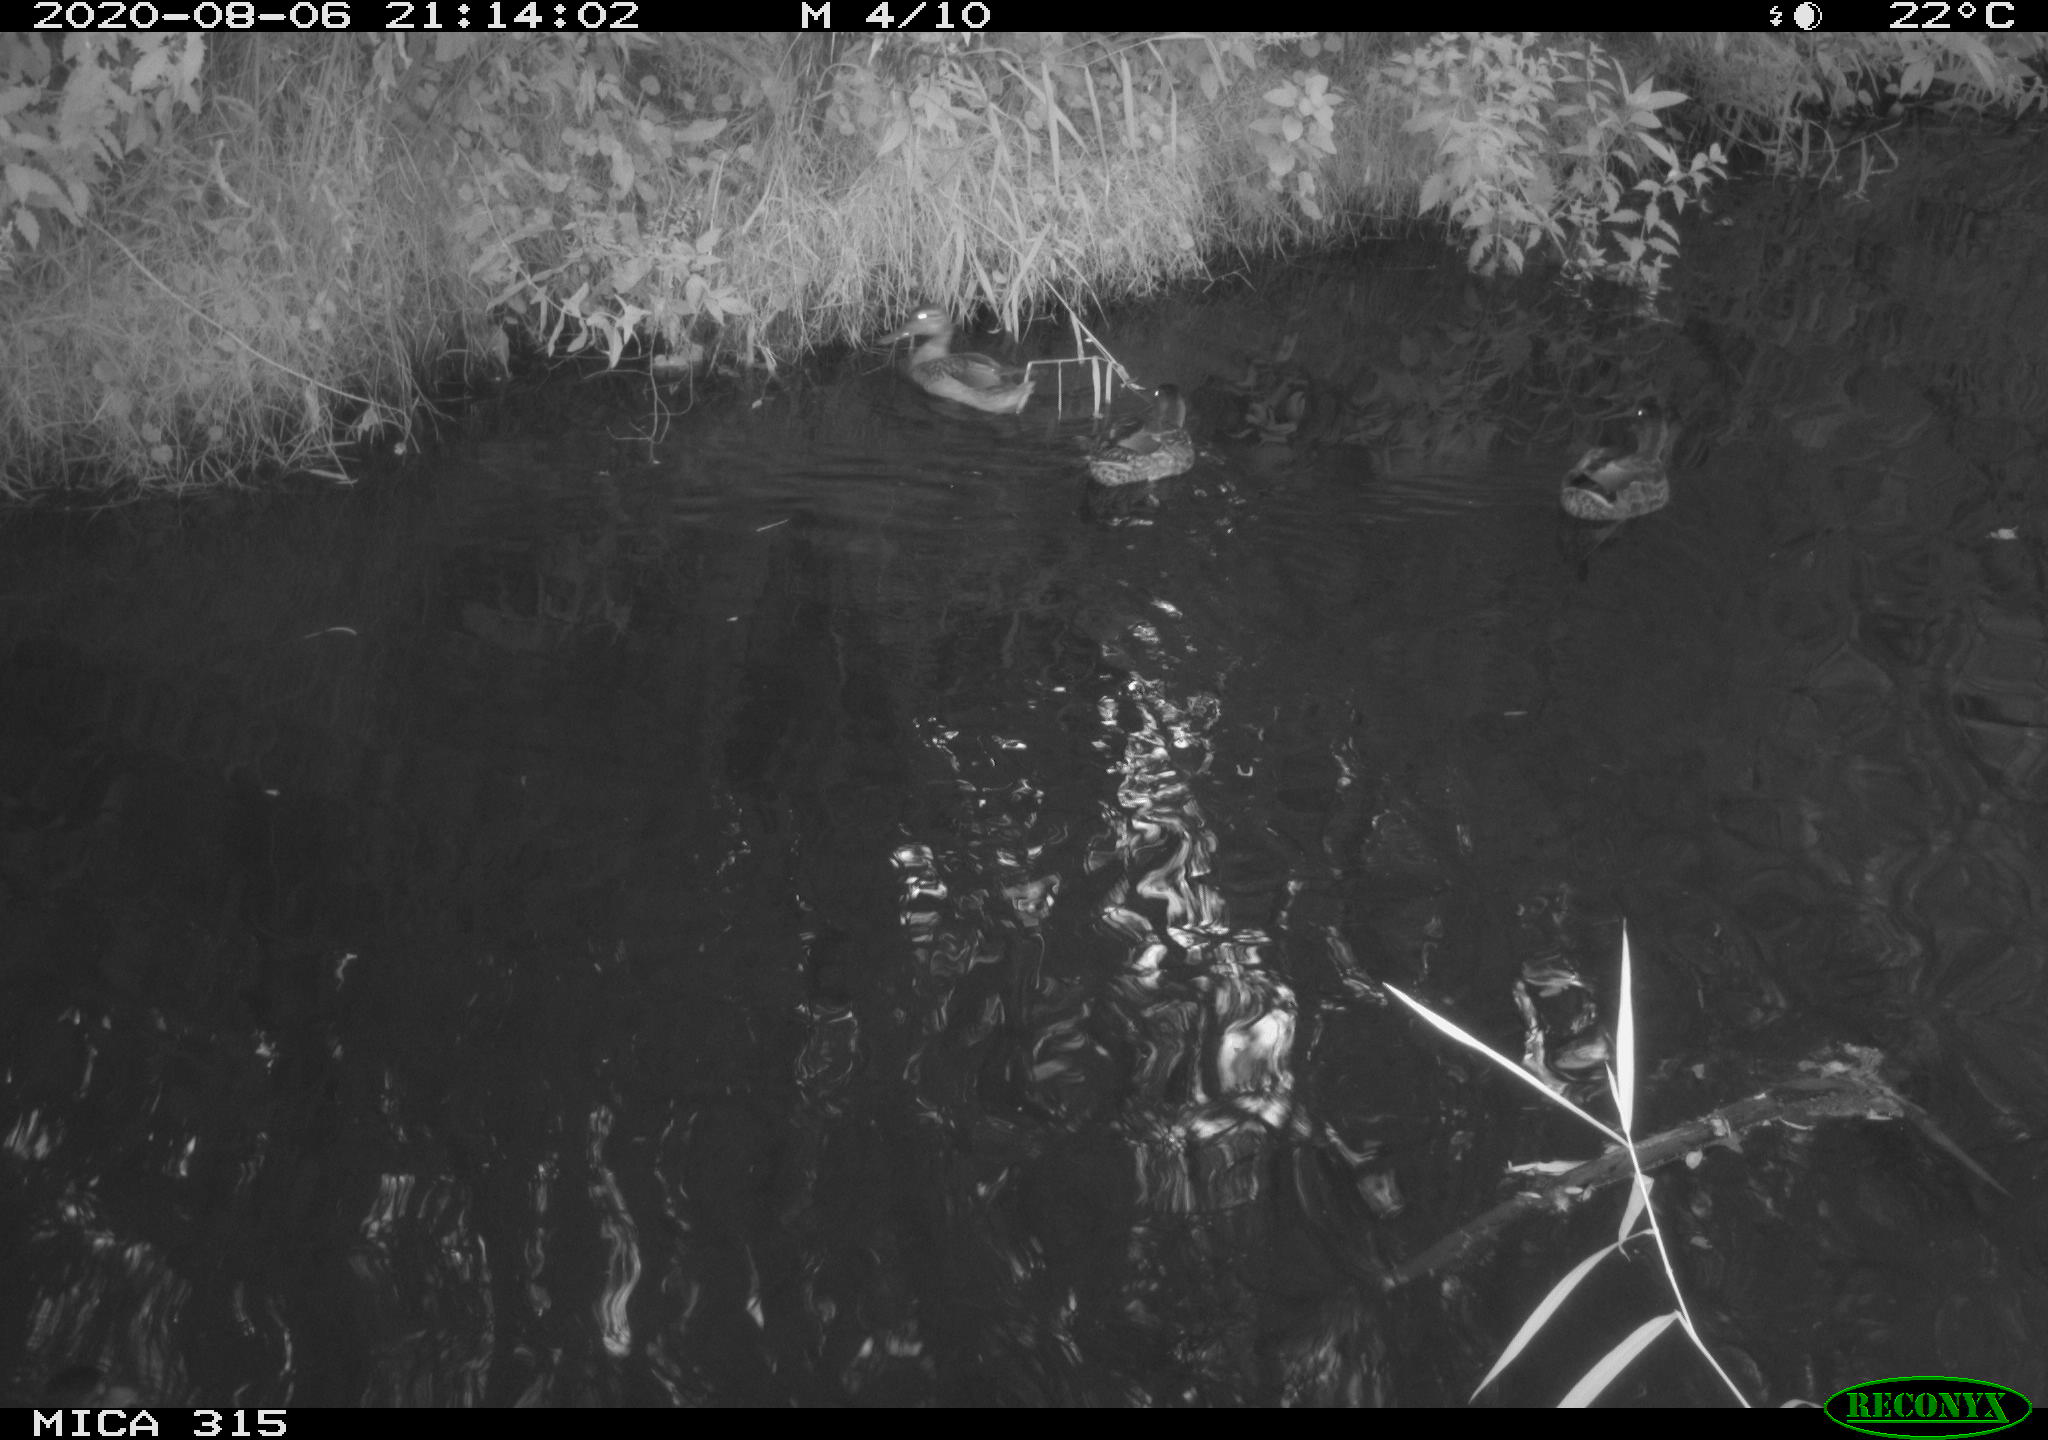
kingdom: Animalia
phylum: Chordata
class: Aves
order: Anseriformes
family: Anatidae
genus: Anas
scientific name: Anas platyrhynchos
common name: Mallard
